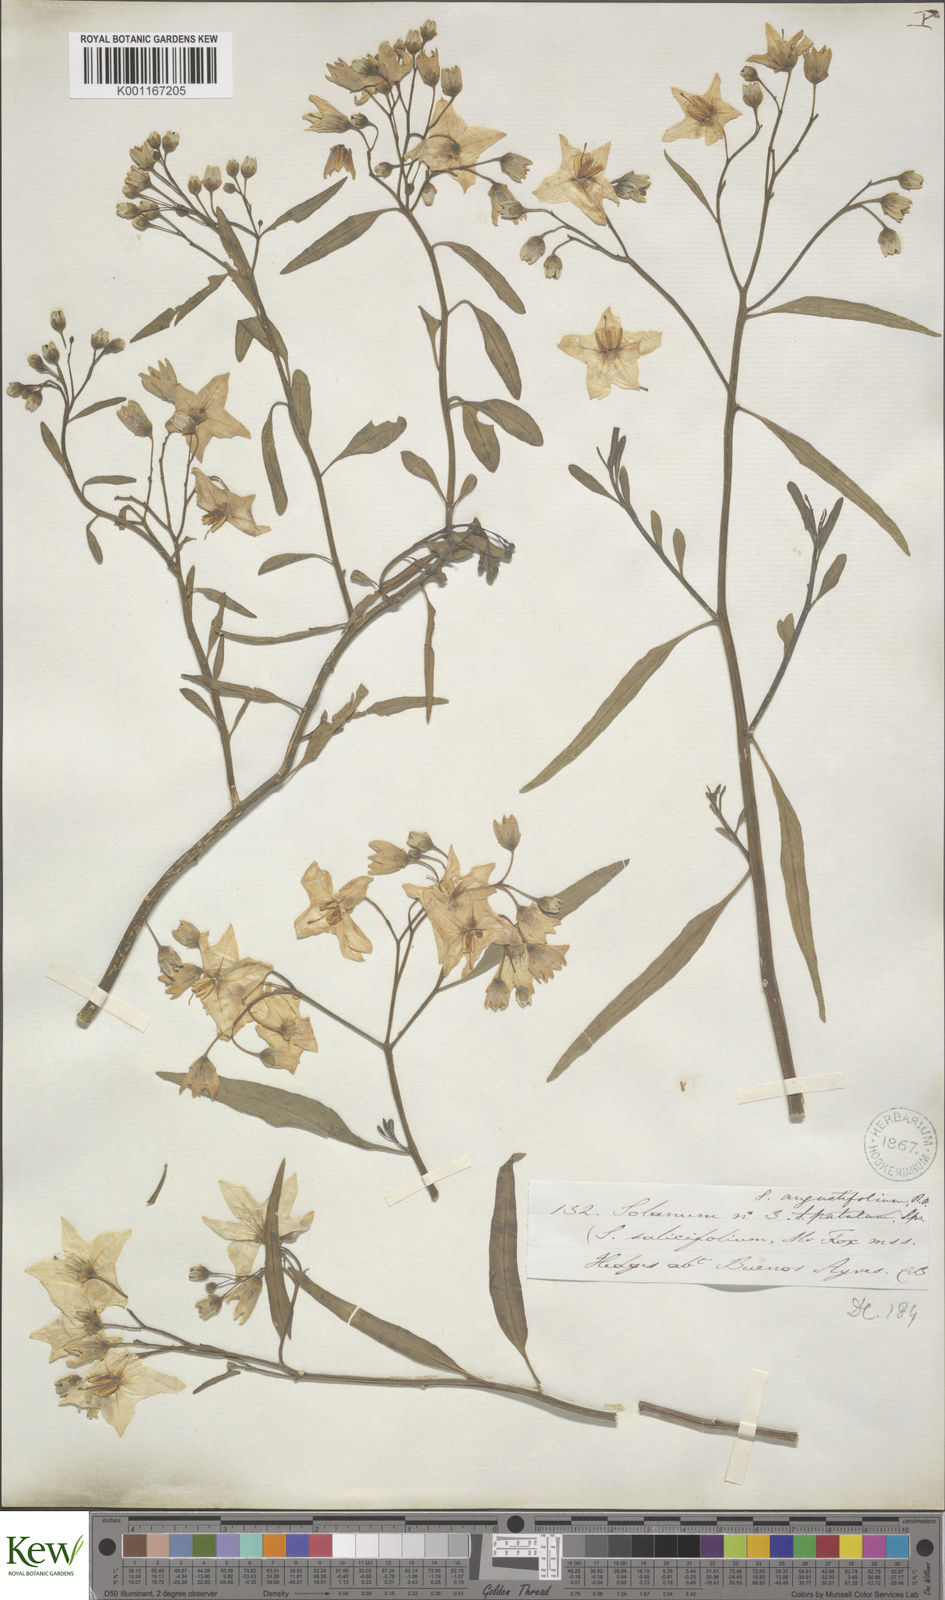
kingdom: Plantae
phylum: Tracheophyta
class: Magnoliopsida
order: Solanales
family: Solanaceae
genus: Solanum
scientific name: Solanum amygdalifolium
